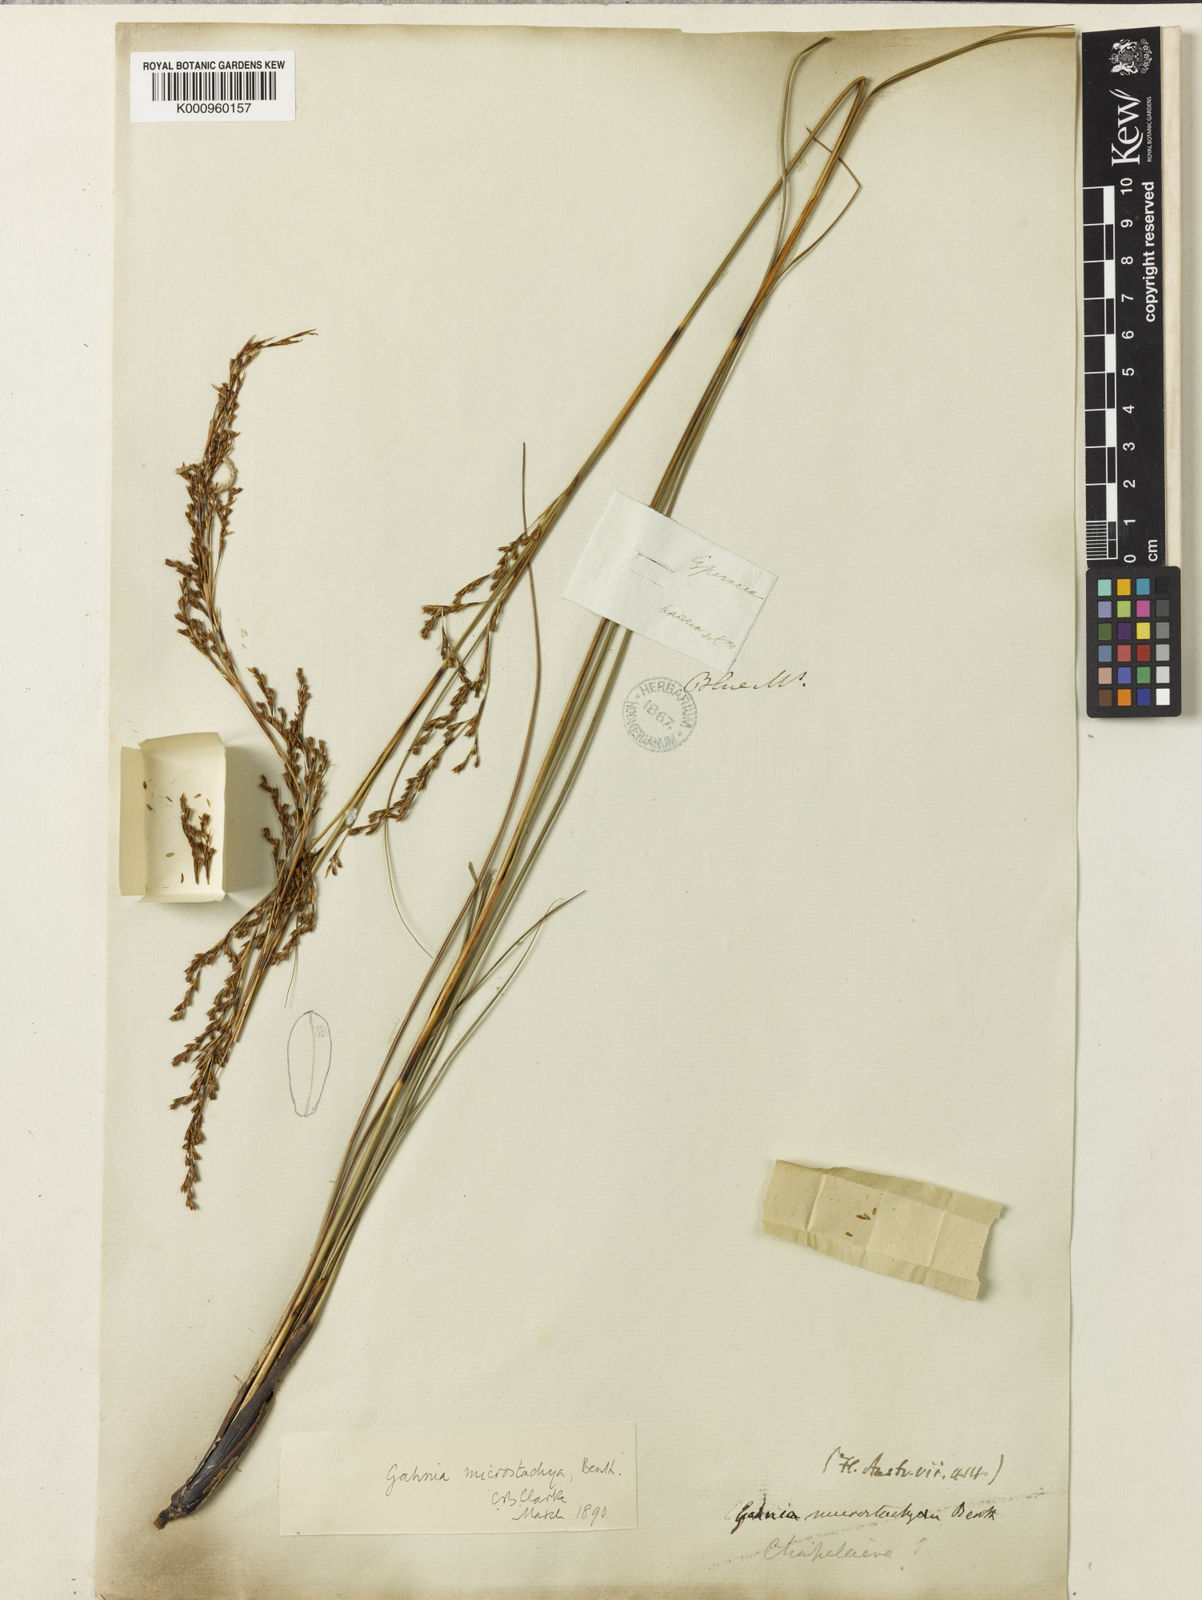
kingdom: Plantae
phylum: Tracheophyta
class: Liliopsida
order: Poales
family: Cyperaceae
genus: Gahnia
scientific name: Gahnia microstachya
